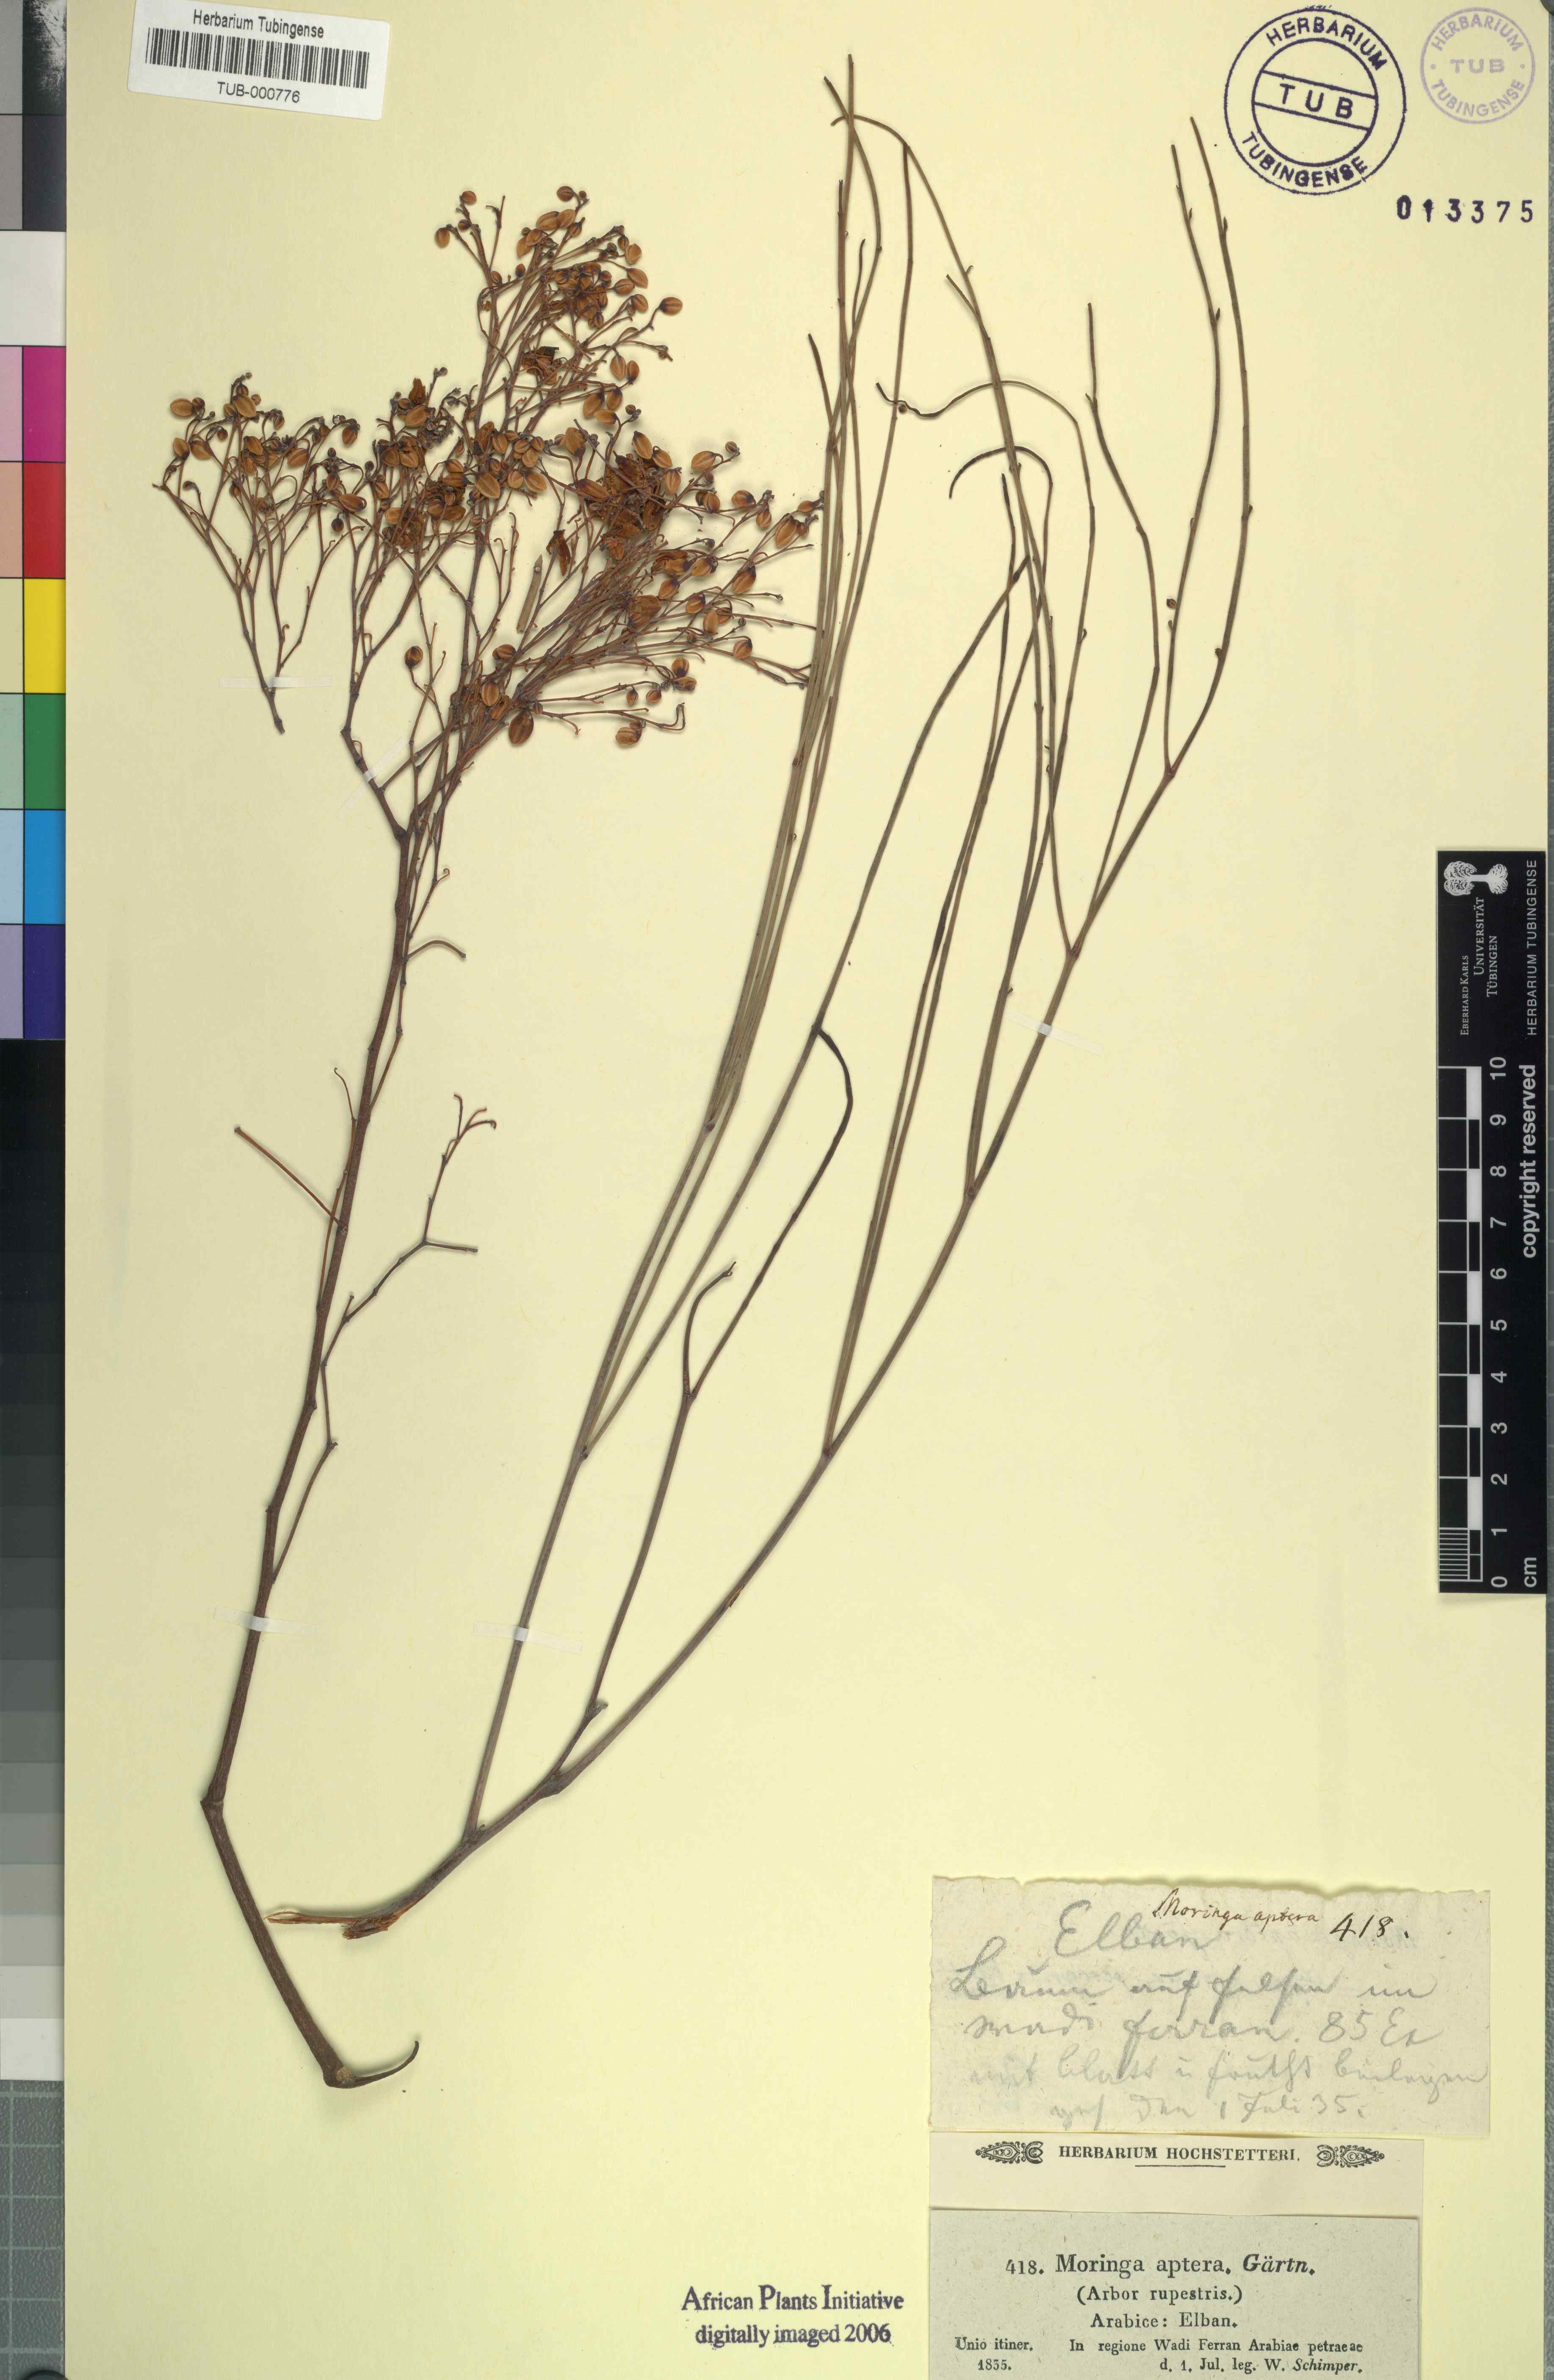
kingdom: Plantae
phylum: Tracheophyta
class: Magnoliopsida
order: Brassicales
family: Moringaceae
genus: Moringa
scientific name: Moringa peregrina
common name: Wild drumstick tree
